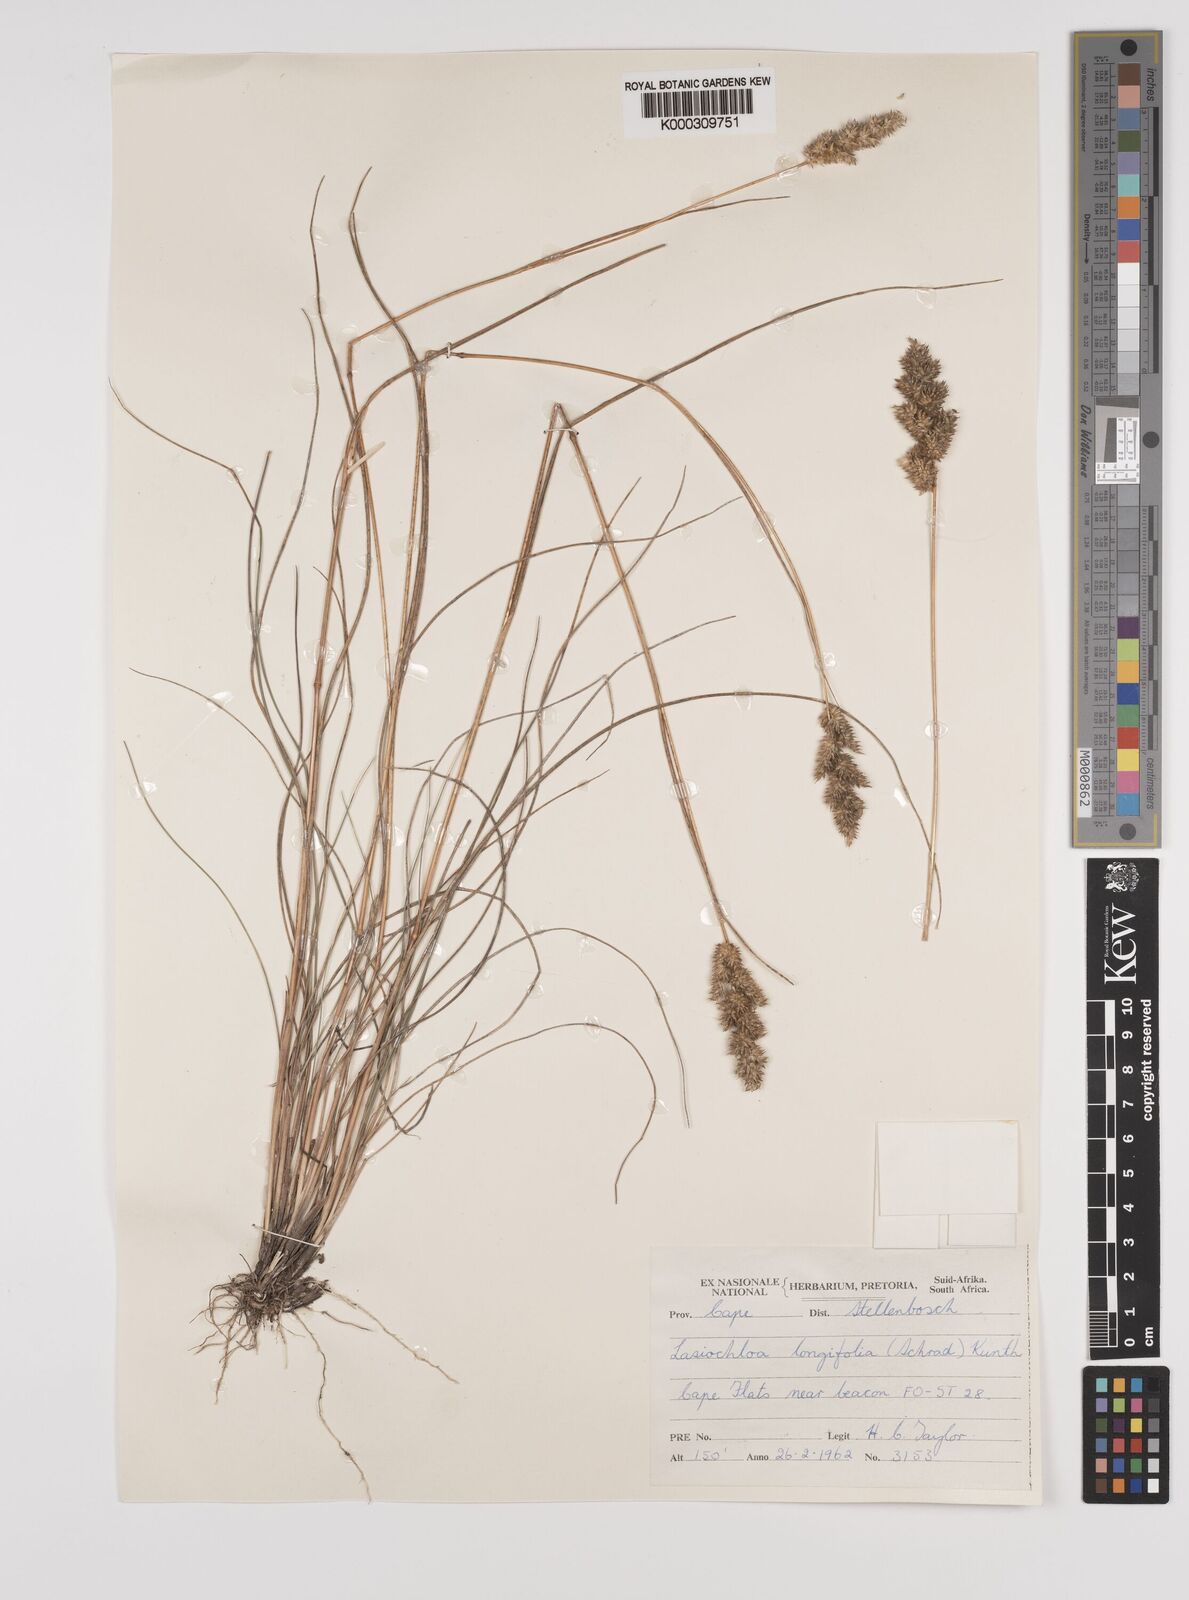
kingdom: Plantae
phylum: Tracheophyta
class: Liliopsida
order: Poales
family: Poaceae
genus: Tribolium
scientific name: Tribolium hispidum
